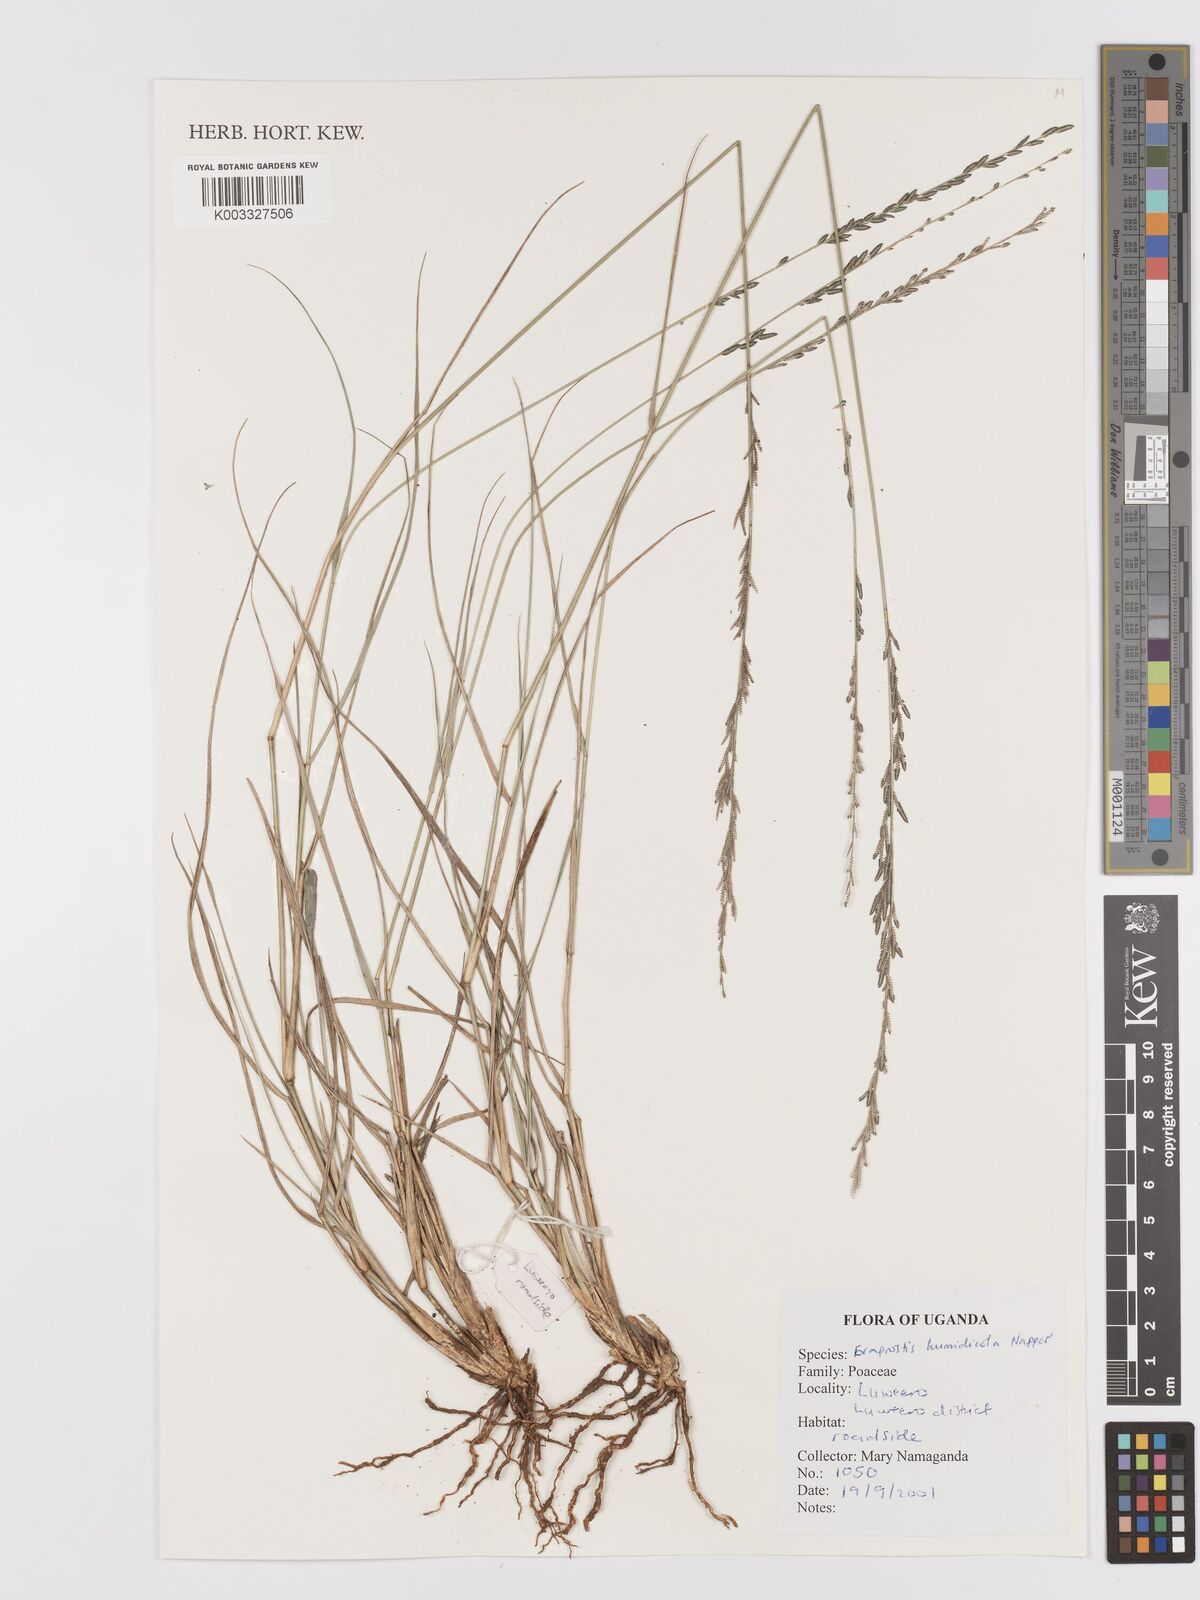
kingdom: Plantae
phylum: Tracheophyta
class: Liliopsida
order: Poales
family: Poaceae
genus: Eragrostis
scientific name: Eragrostis humidicola
